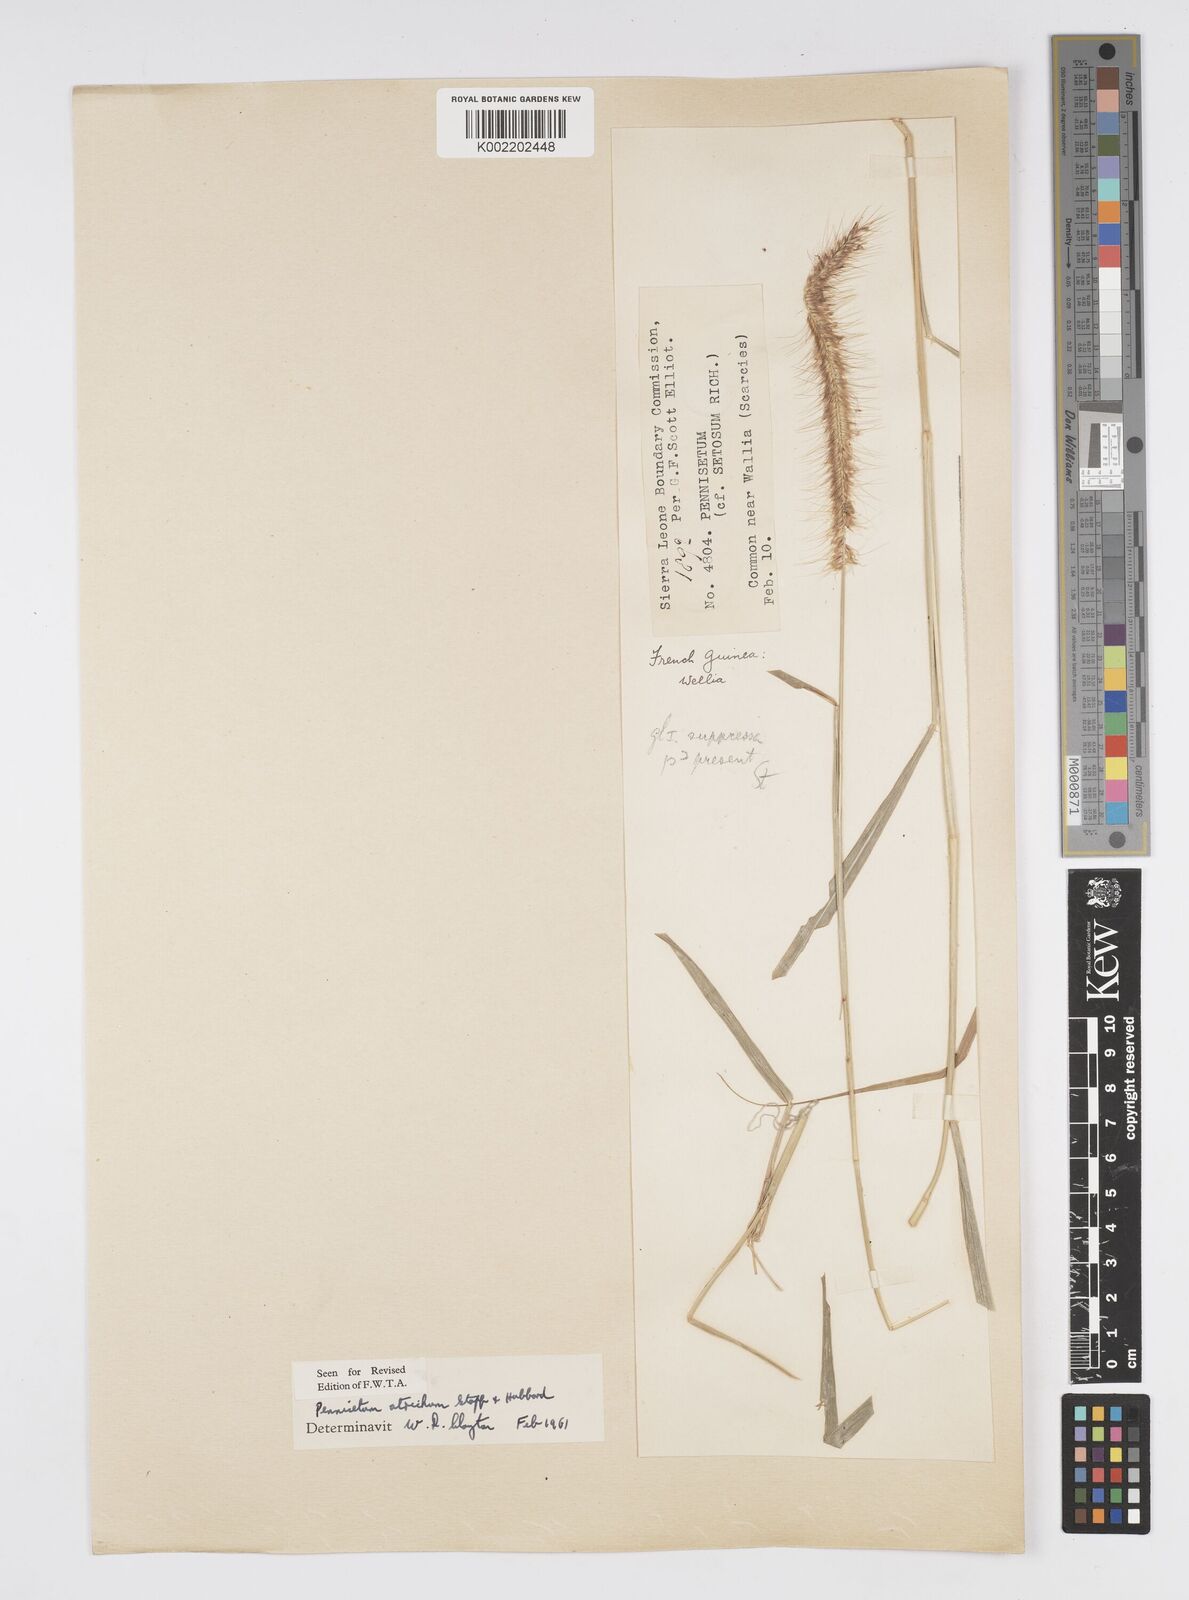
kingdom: Plantae
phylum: Tracheophyta
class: Liliopsida
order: Poales
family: Poaceae
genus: Cenchrus
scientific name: Cenchrus setosus
